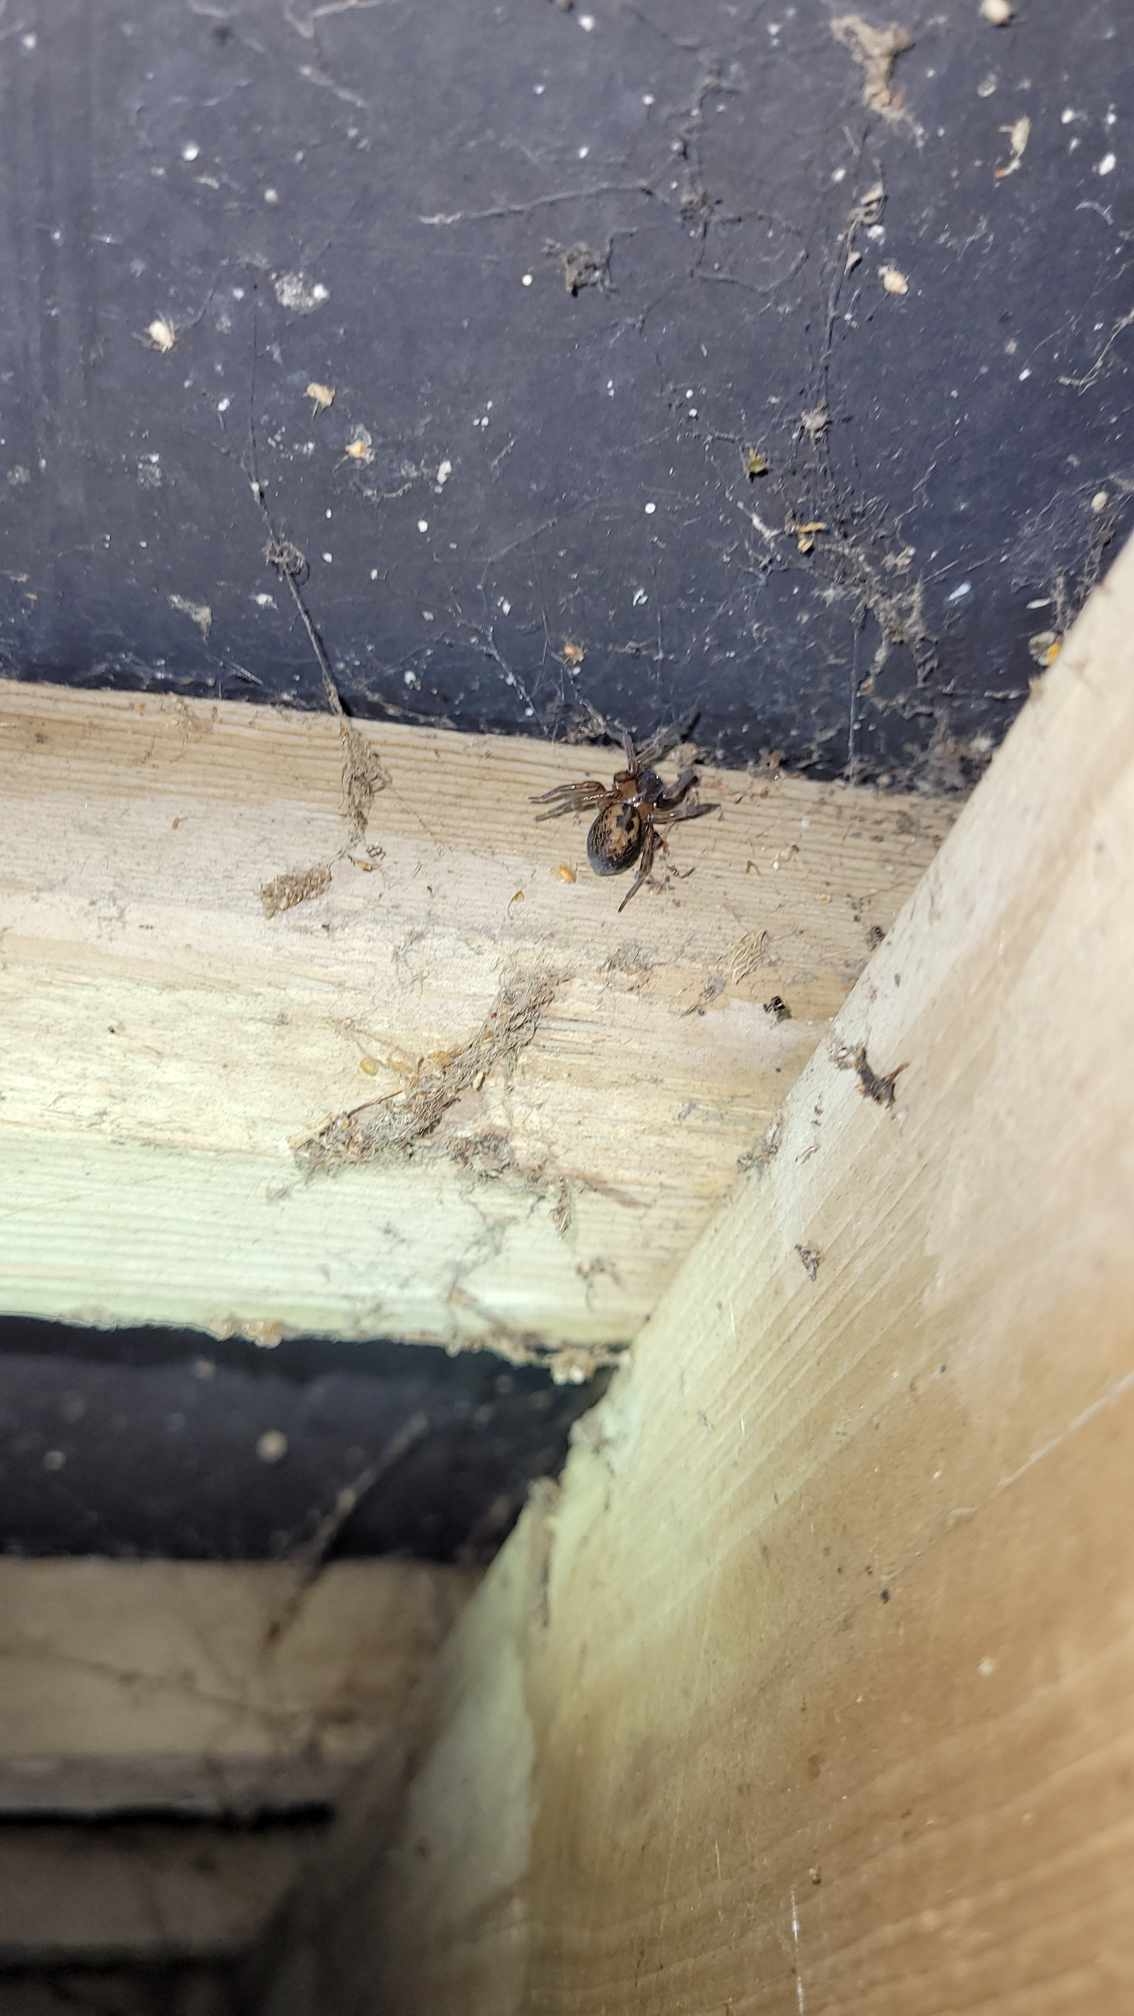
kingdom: Animalia
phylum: Arthropoda
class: Arachnida
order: Araneae
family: Amaurobiidae
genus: Amaurobius
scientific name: Amaurobius similis
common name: Huskartespinder
